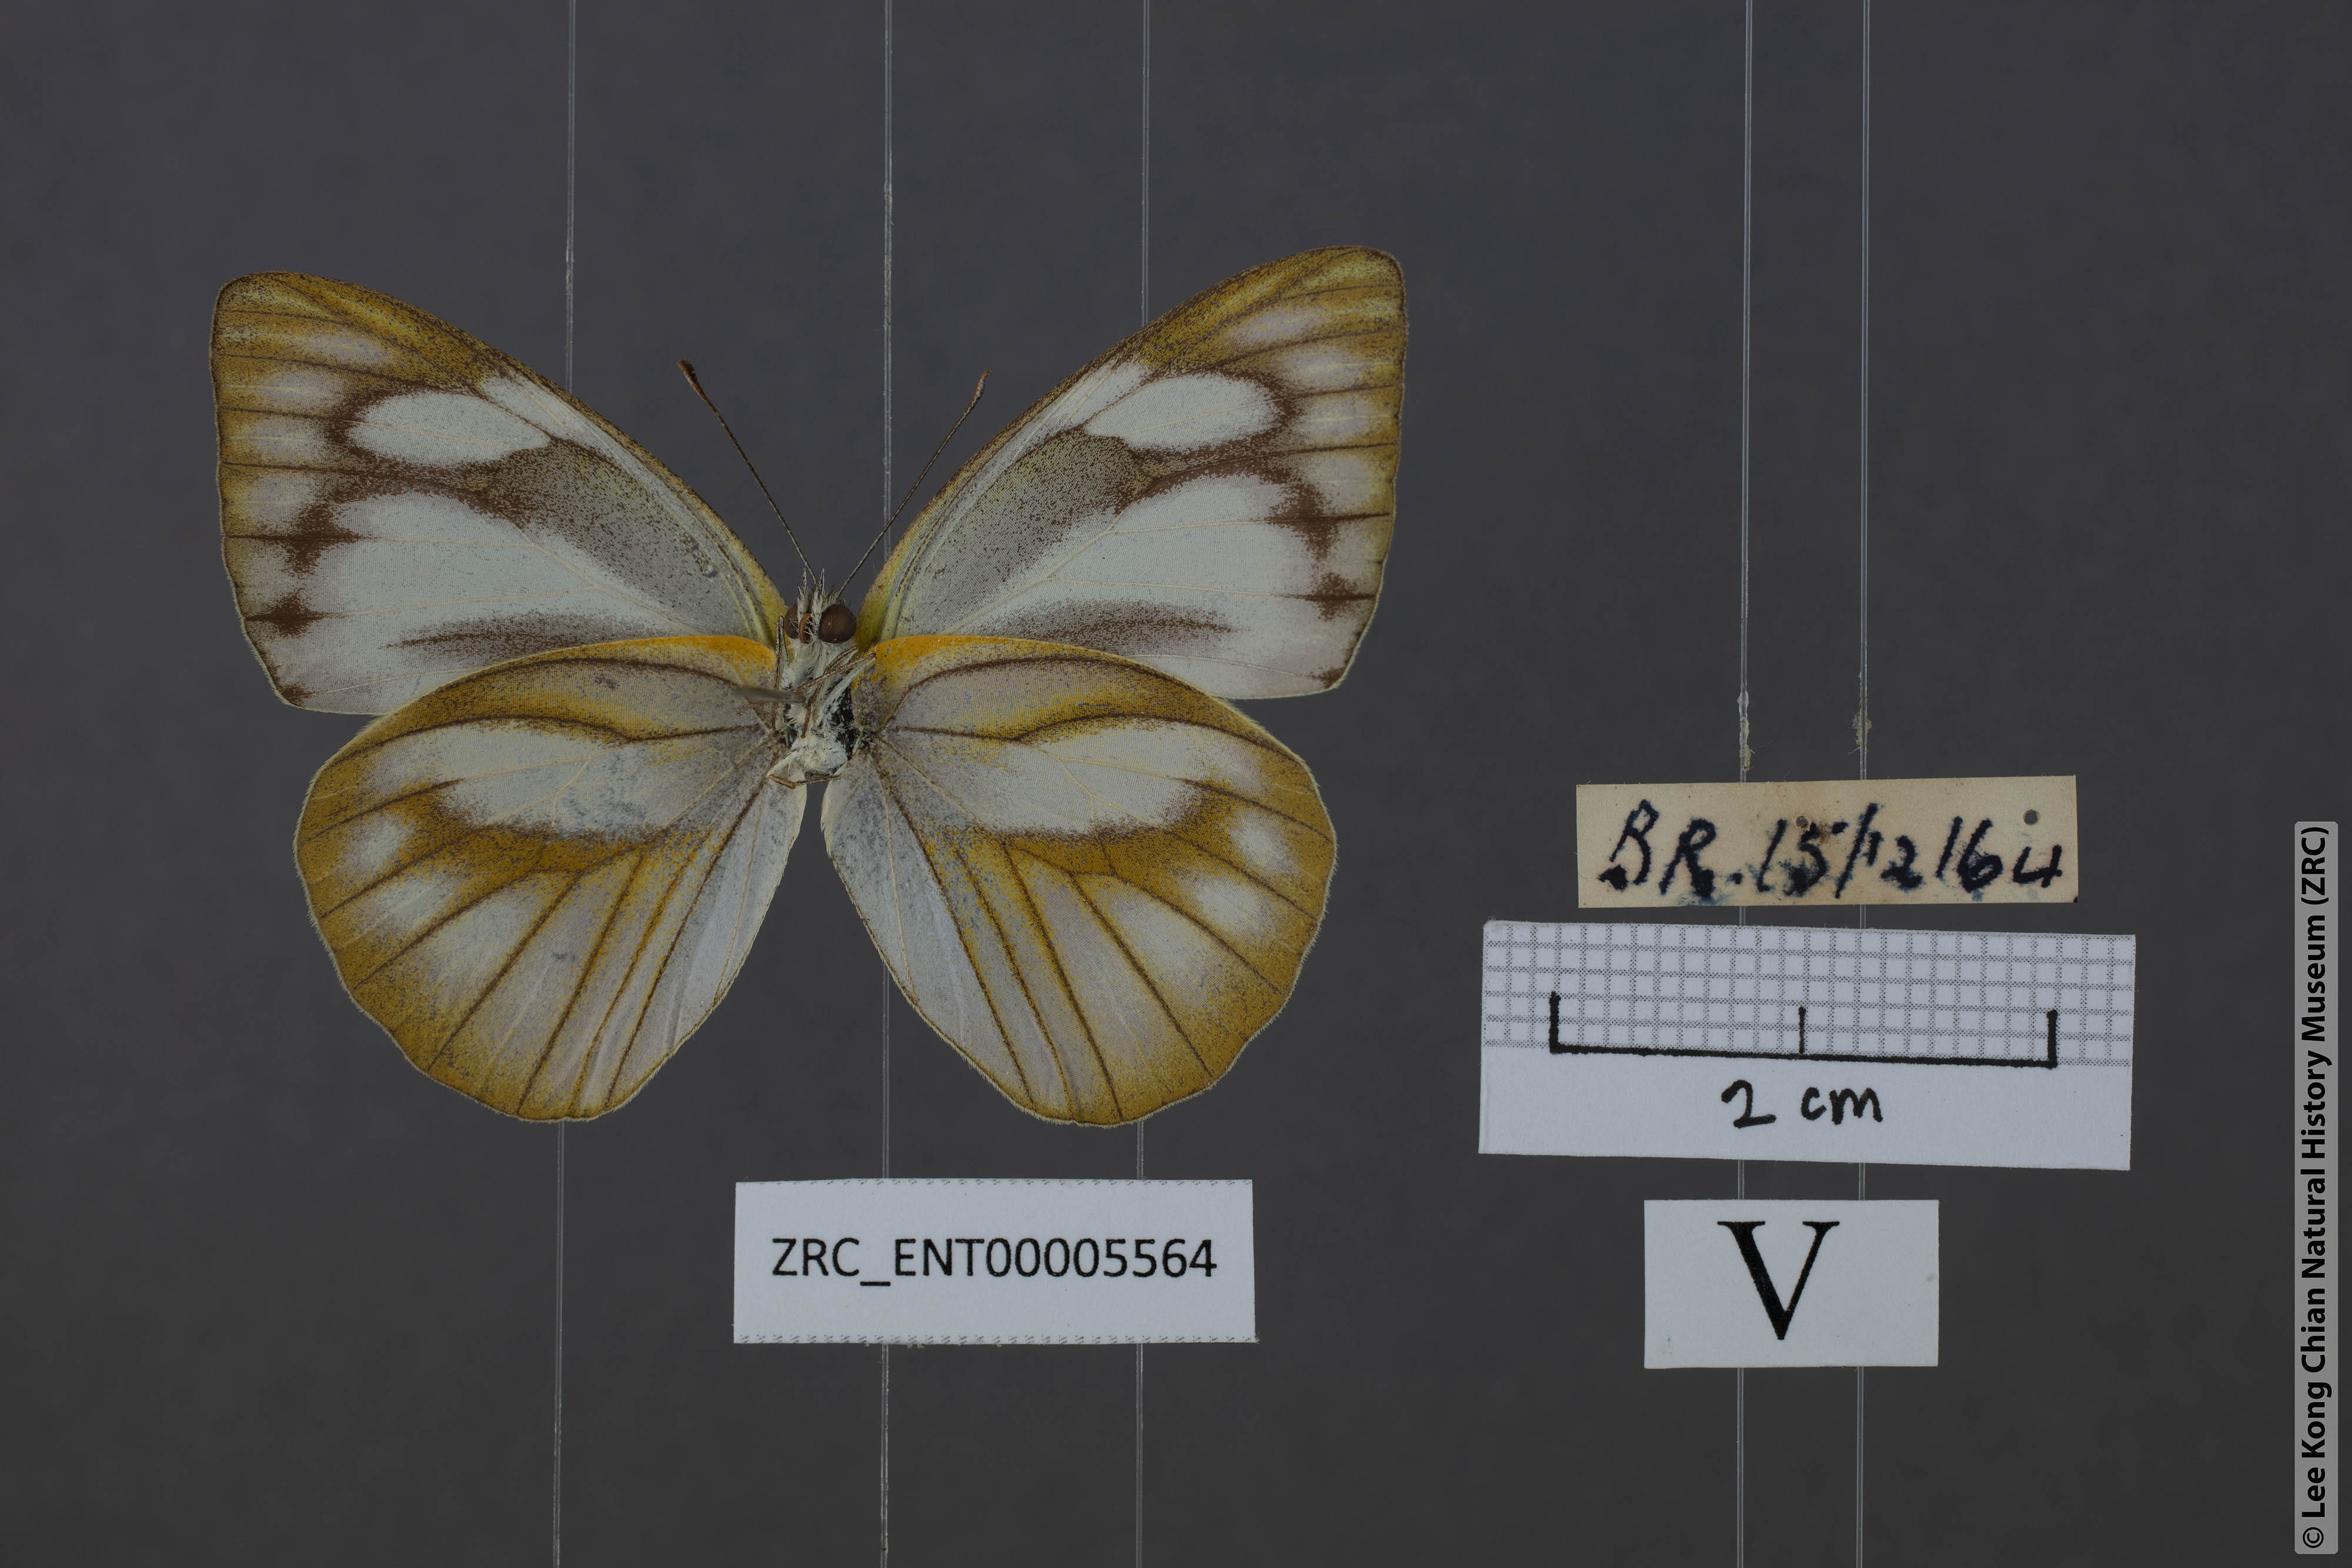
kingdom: Animalia
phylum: Arthropoda
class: Insecta
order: Lepidoptera
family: Pieridae
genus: Appias
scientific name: Appias libythea
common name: Striped albatross
